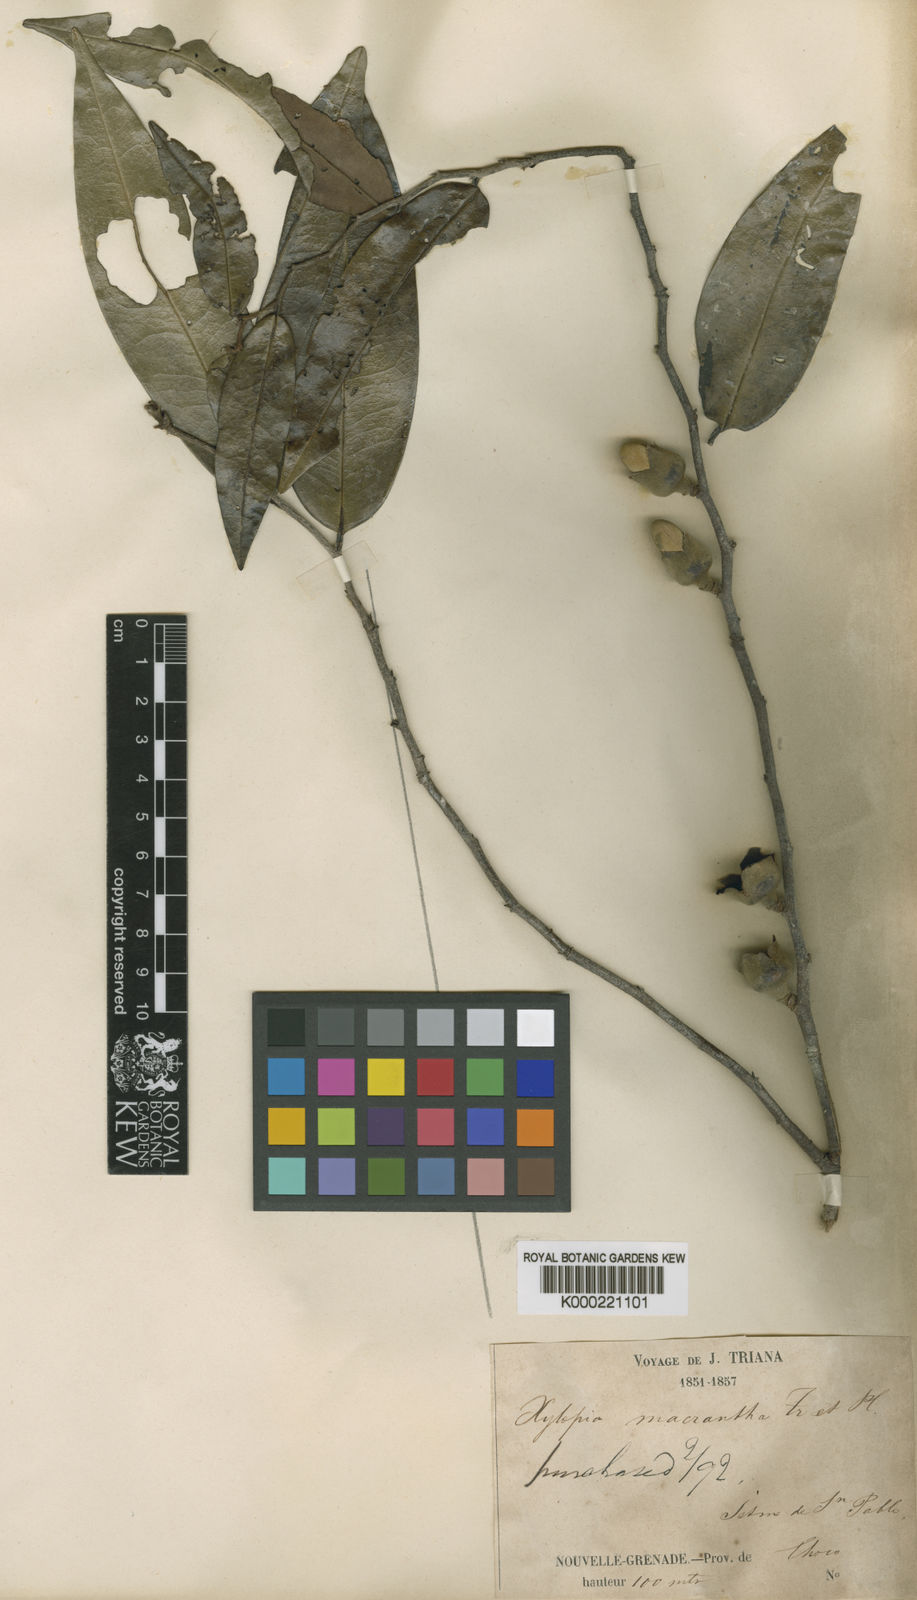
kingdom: Plantae
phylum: Tracheophyta
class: Magnoliopsida
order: Magnoliales
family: Annonaceae
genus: Xylopia
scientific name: Xylopia macrantha
